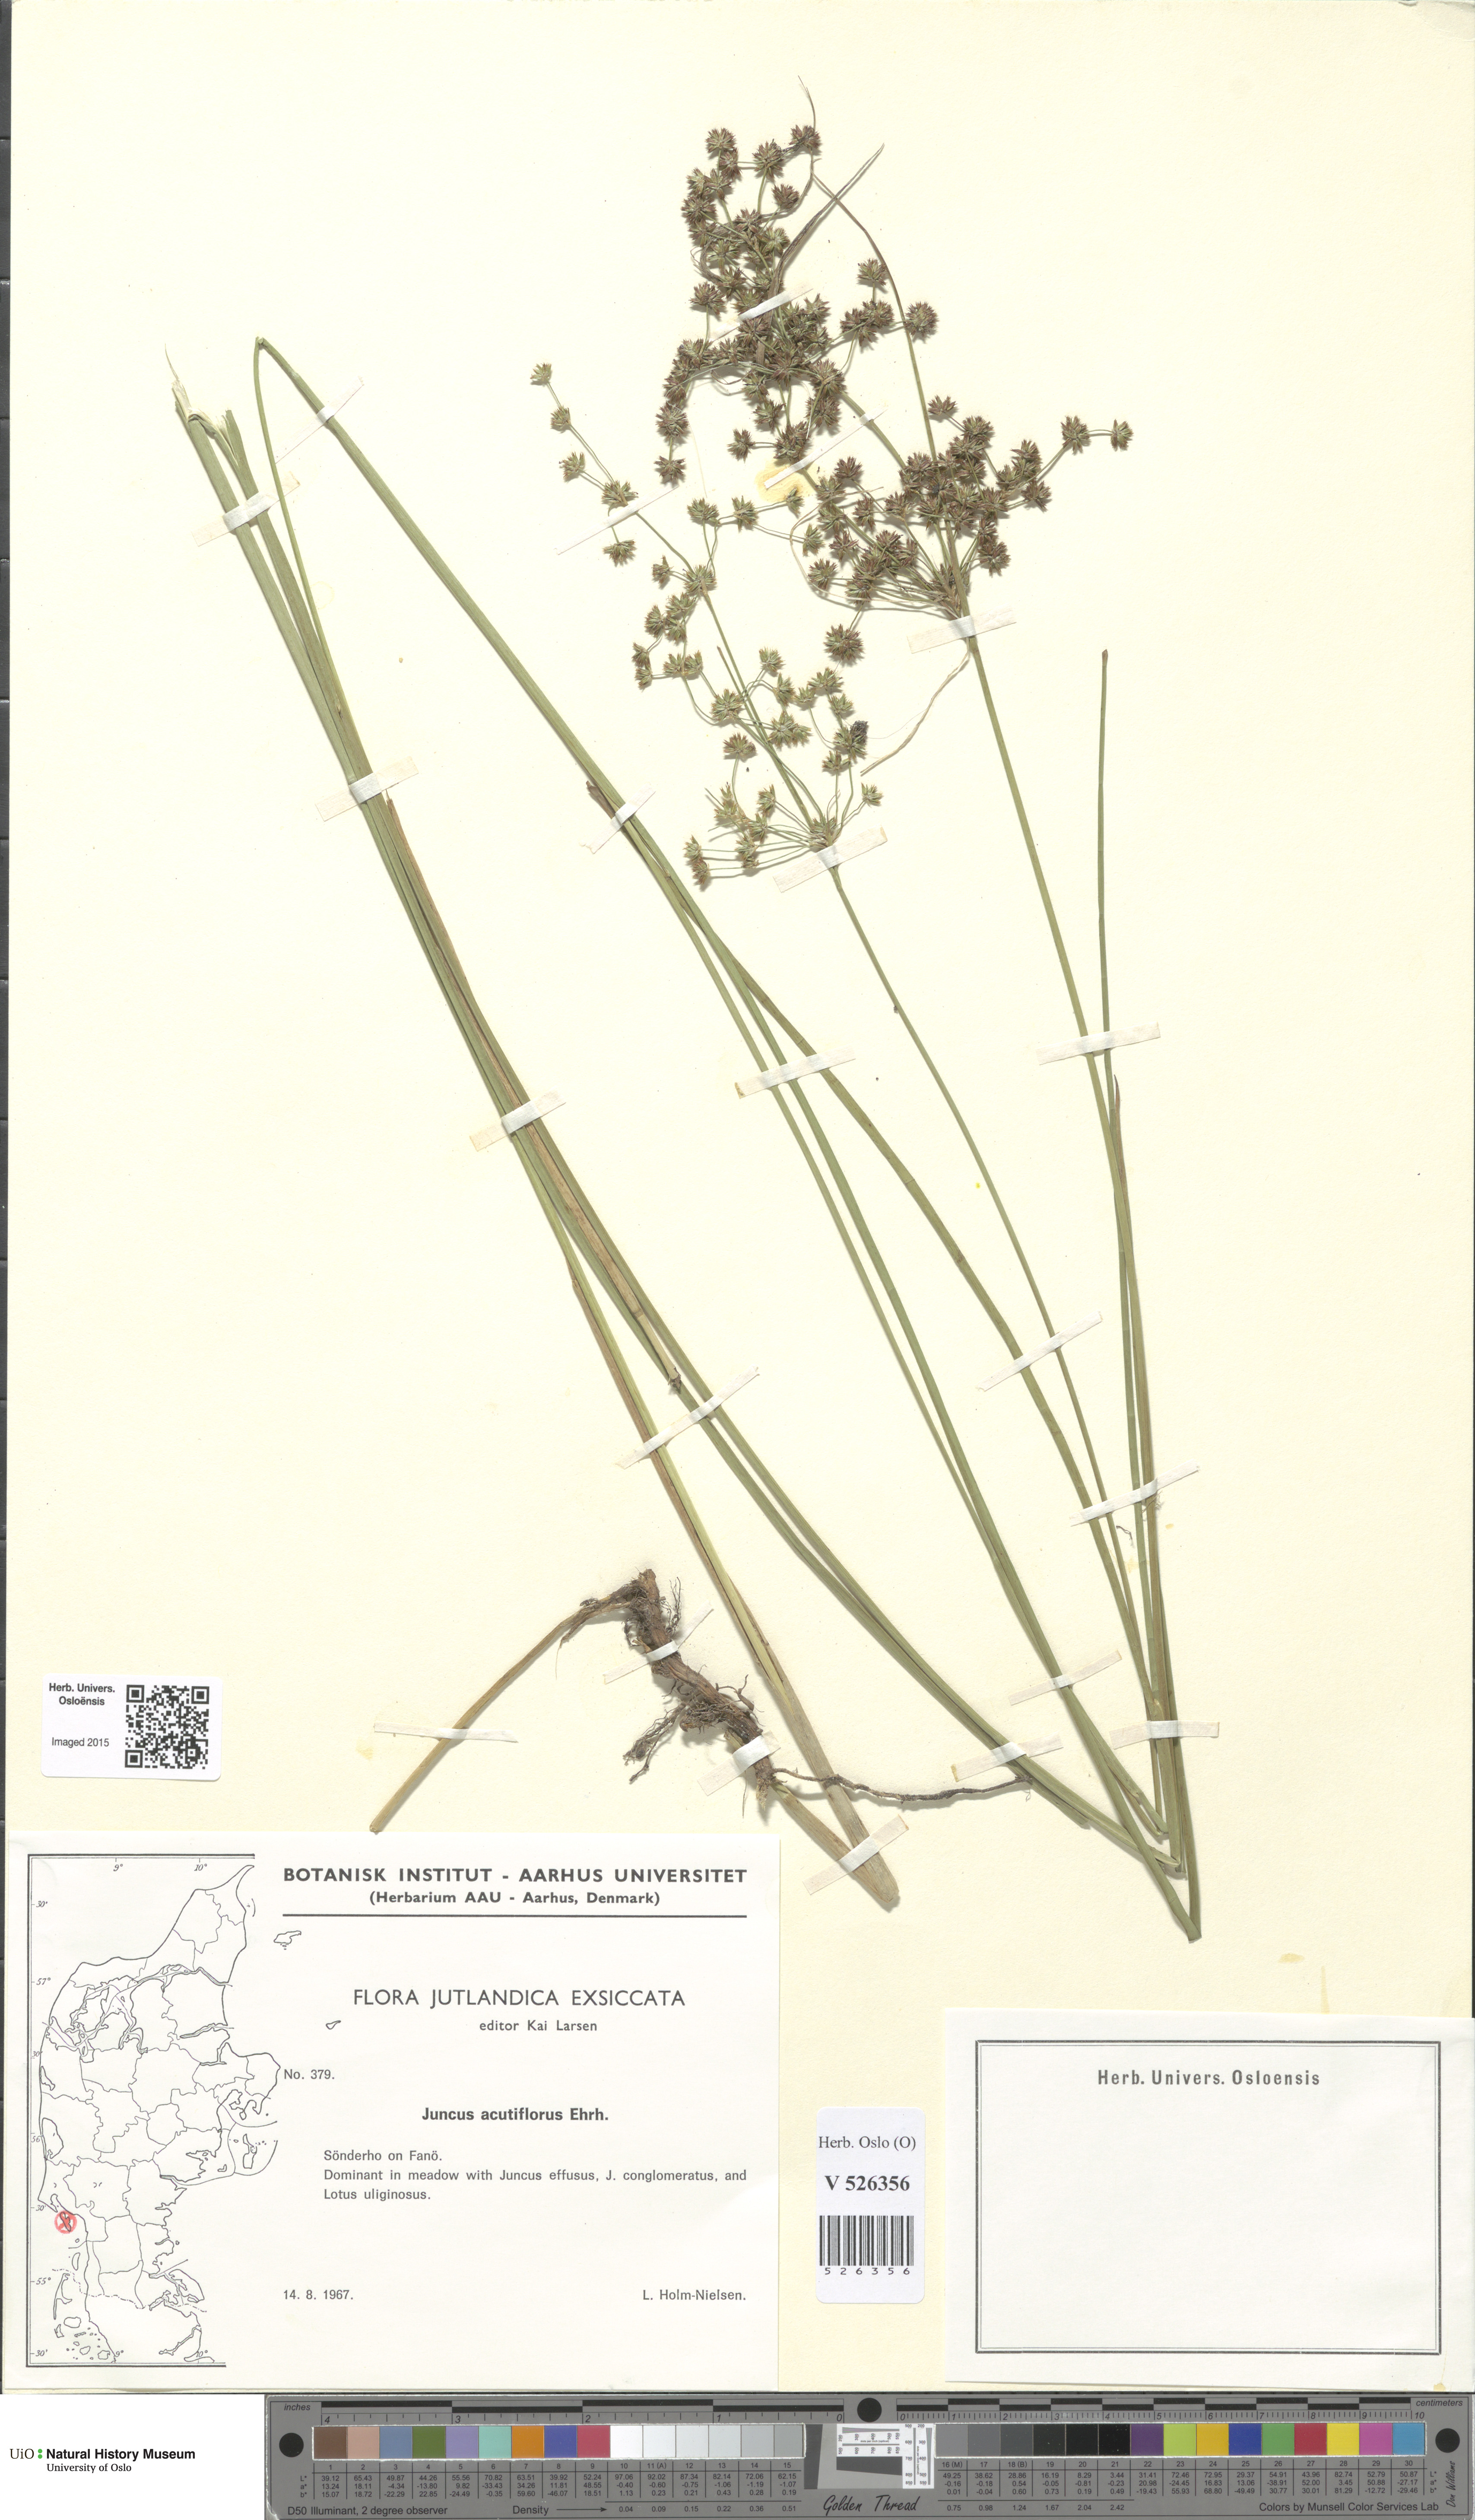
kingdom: Plantae
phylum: Tracheophyta
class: Liliopsida
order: Poales
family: Juncaceae
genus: Juncus
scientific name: Juncus acutiflorus
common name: Sharp-flowered rush
